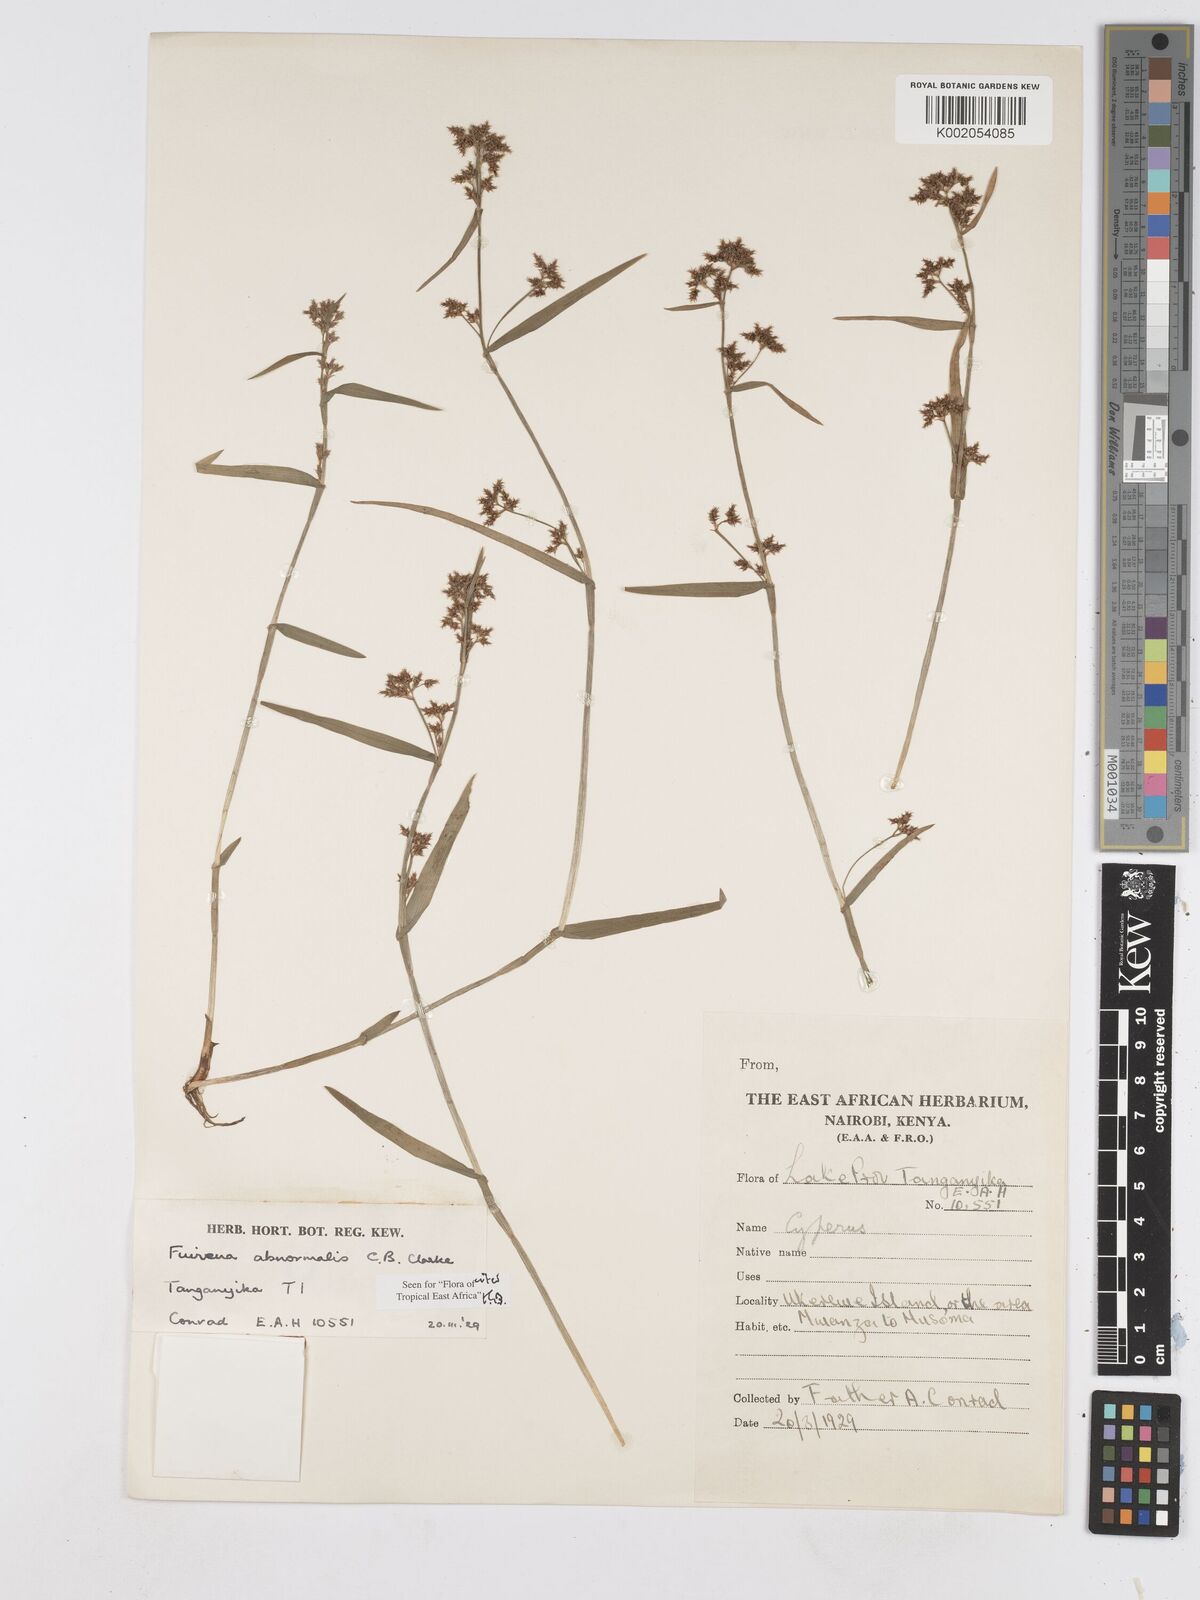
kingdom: Plantae
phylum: Tracheophyta
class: Liliopsida
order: Poales
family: Cyperaceae
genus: Fuirena
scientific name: Fuirena abnormalis
